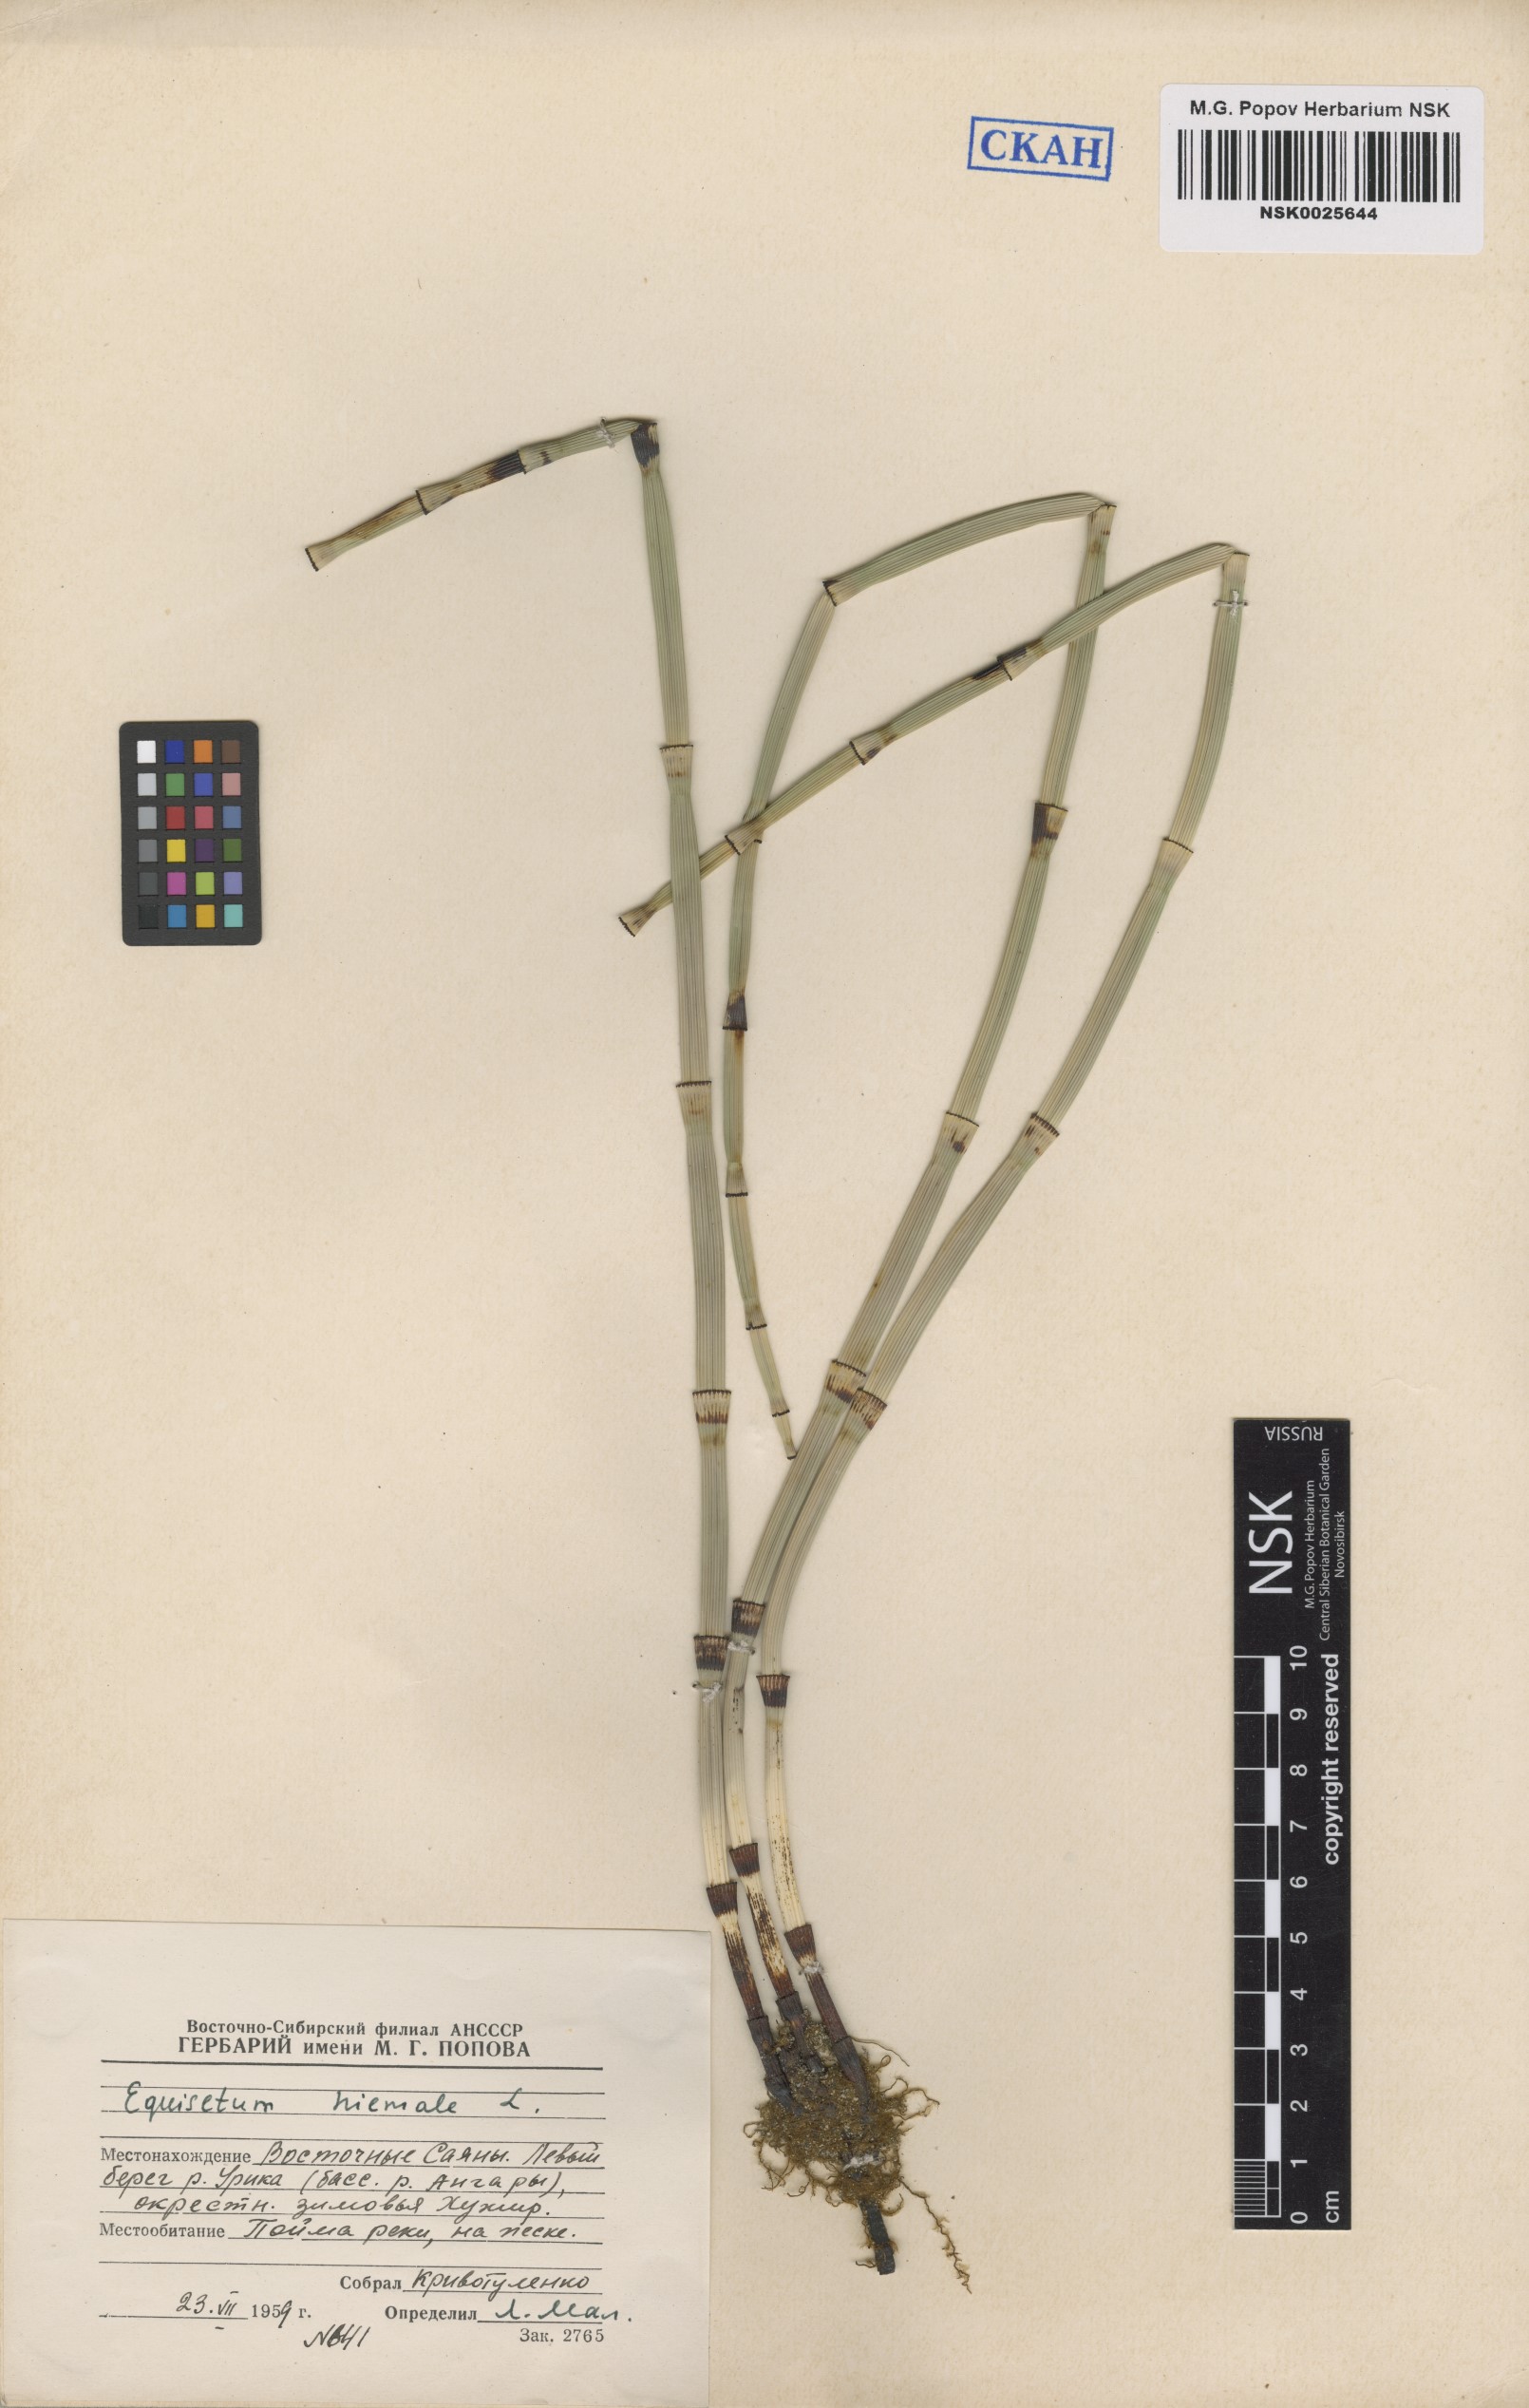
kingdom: Plantae
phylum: Tracheophyta
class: Polypodiopsida
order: Equisetales
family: Equisetaceae
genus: Equisetum
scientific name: Equisetum hyemale
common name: Rough horsetail
